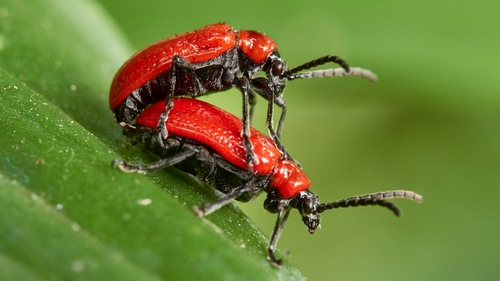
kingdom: Animalia
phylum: Arthropoda
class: Insecta
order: Coleoptera
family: Chrysomelidae
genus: Lilioceris
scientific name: Lilioceris lilii
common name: Lily beetle
